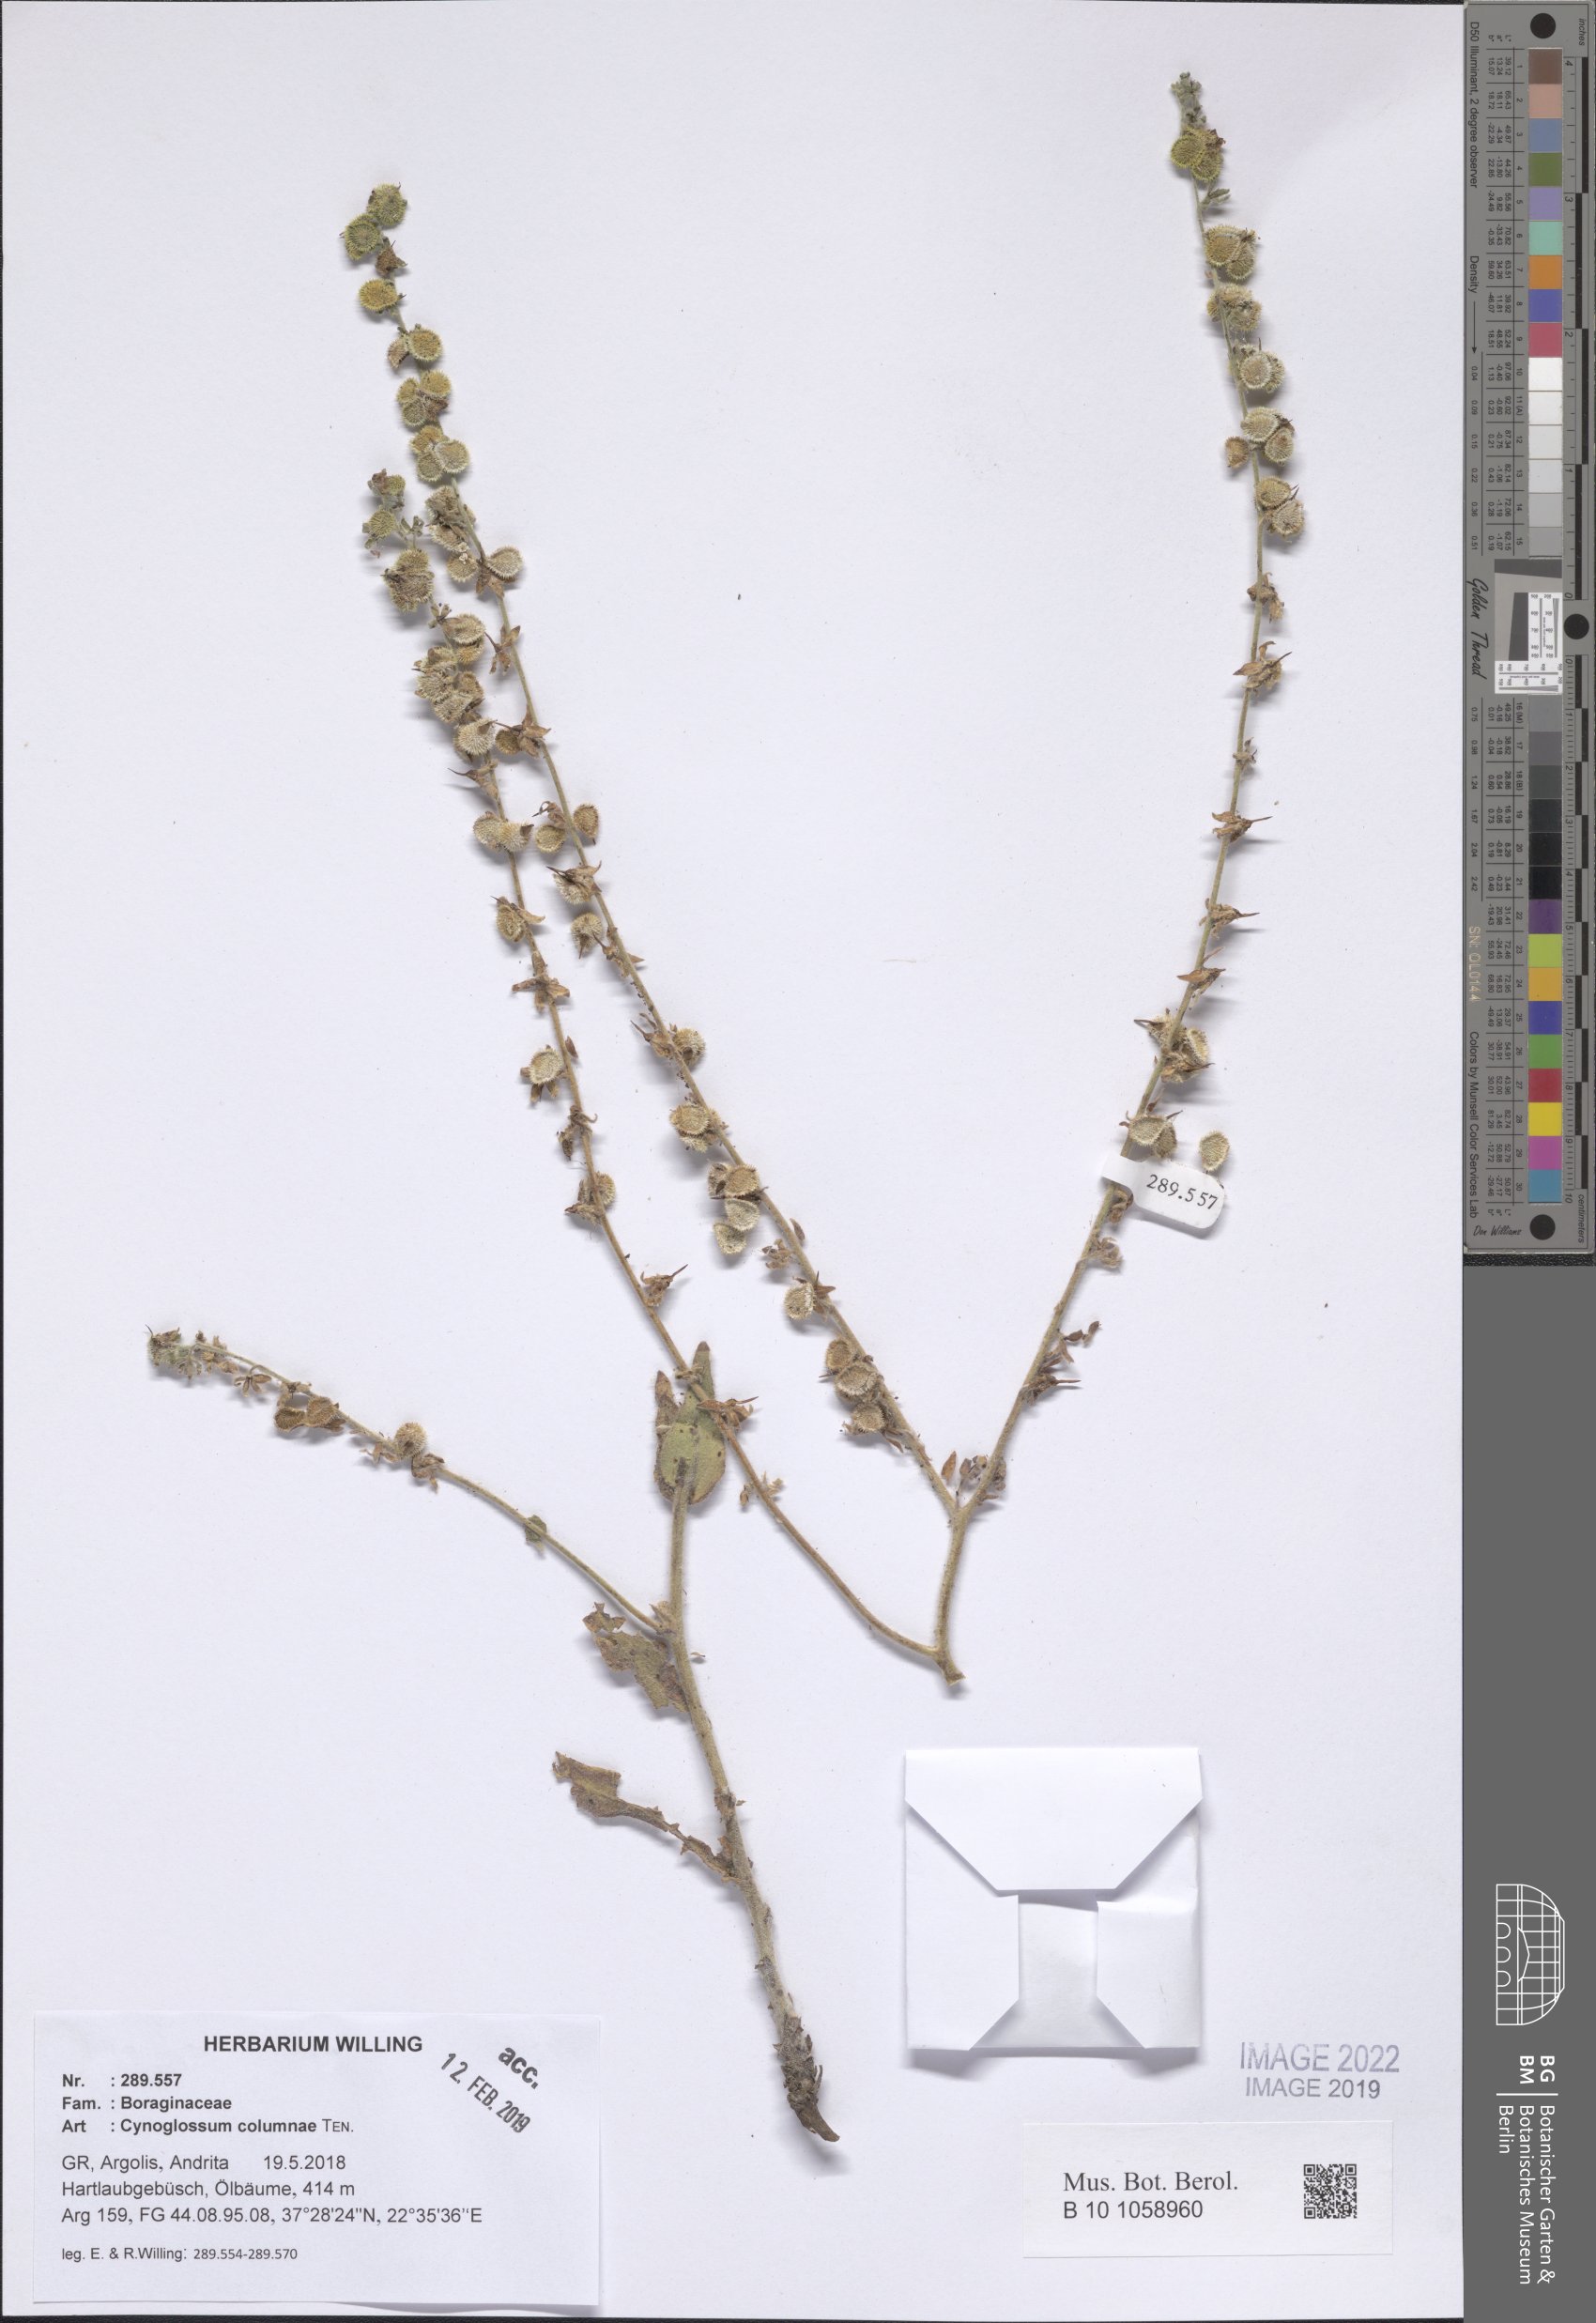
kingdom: Plantae
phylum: Tracheophyta
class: Magnoliopsida
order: Boraginales
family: Boraginaceae
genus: Rindera
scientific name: Rindera columnae
